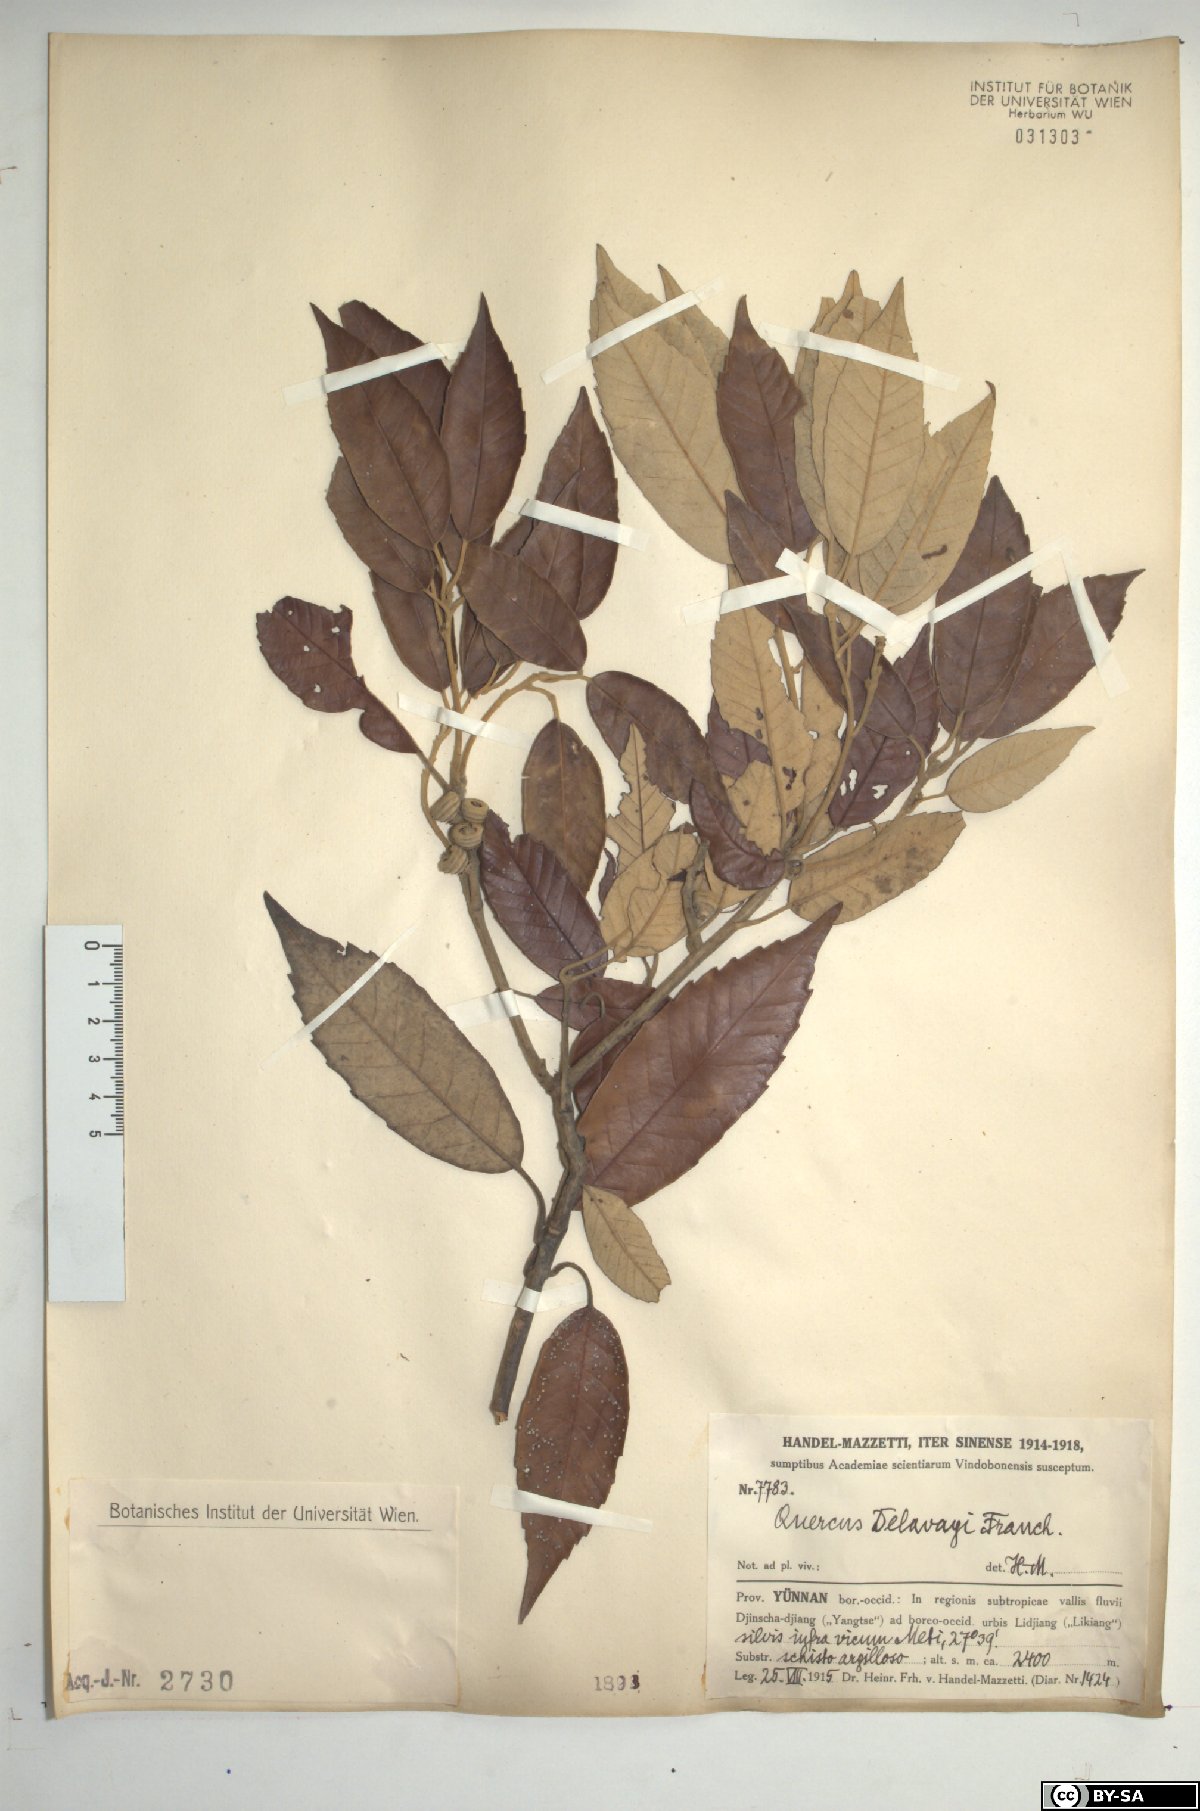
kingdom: Plantae
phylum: Tracheophyta
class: Magnoliopsida
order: Fagales
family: Fagaceae
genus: Quercus
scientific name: Quercus delavayi
